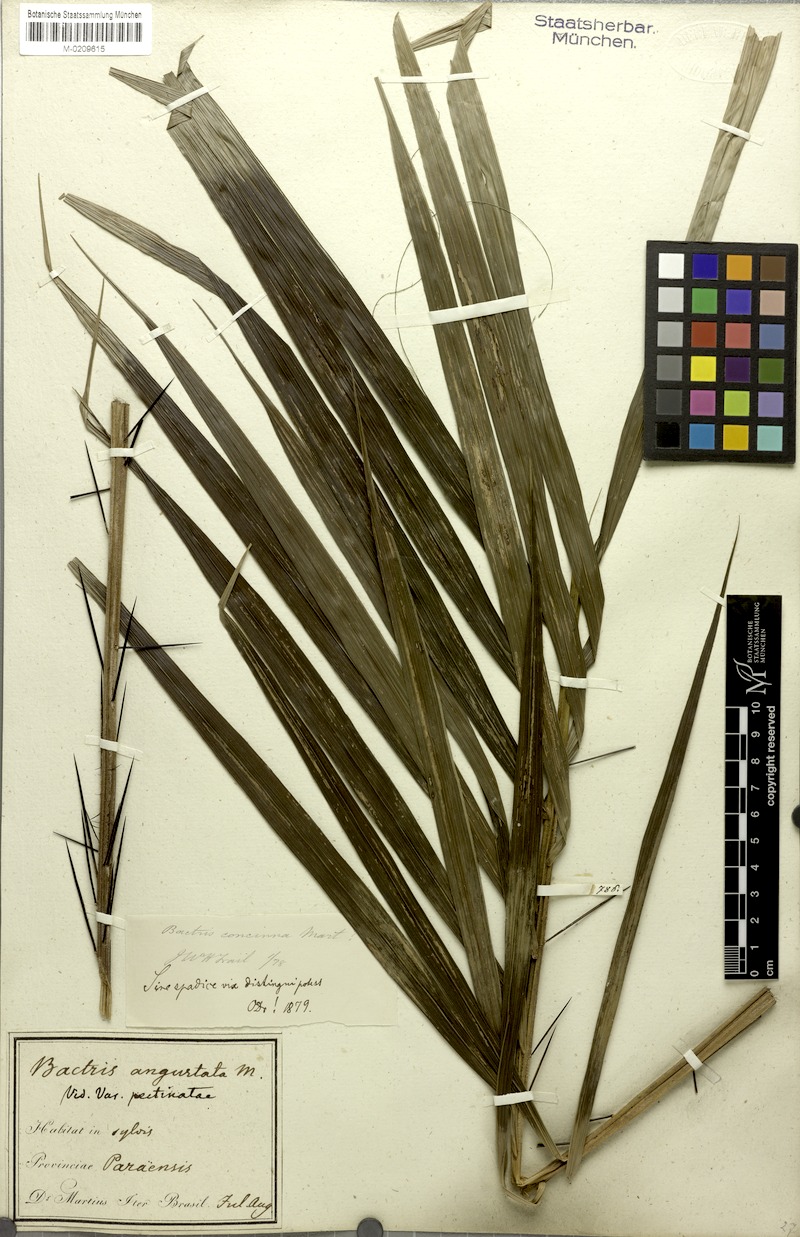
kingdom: Plantae
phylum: Tracheophyta
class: Liliopsida
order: Arecales
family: Arecaceae
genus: Bactris
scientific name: Bactris concinna
